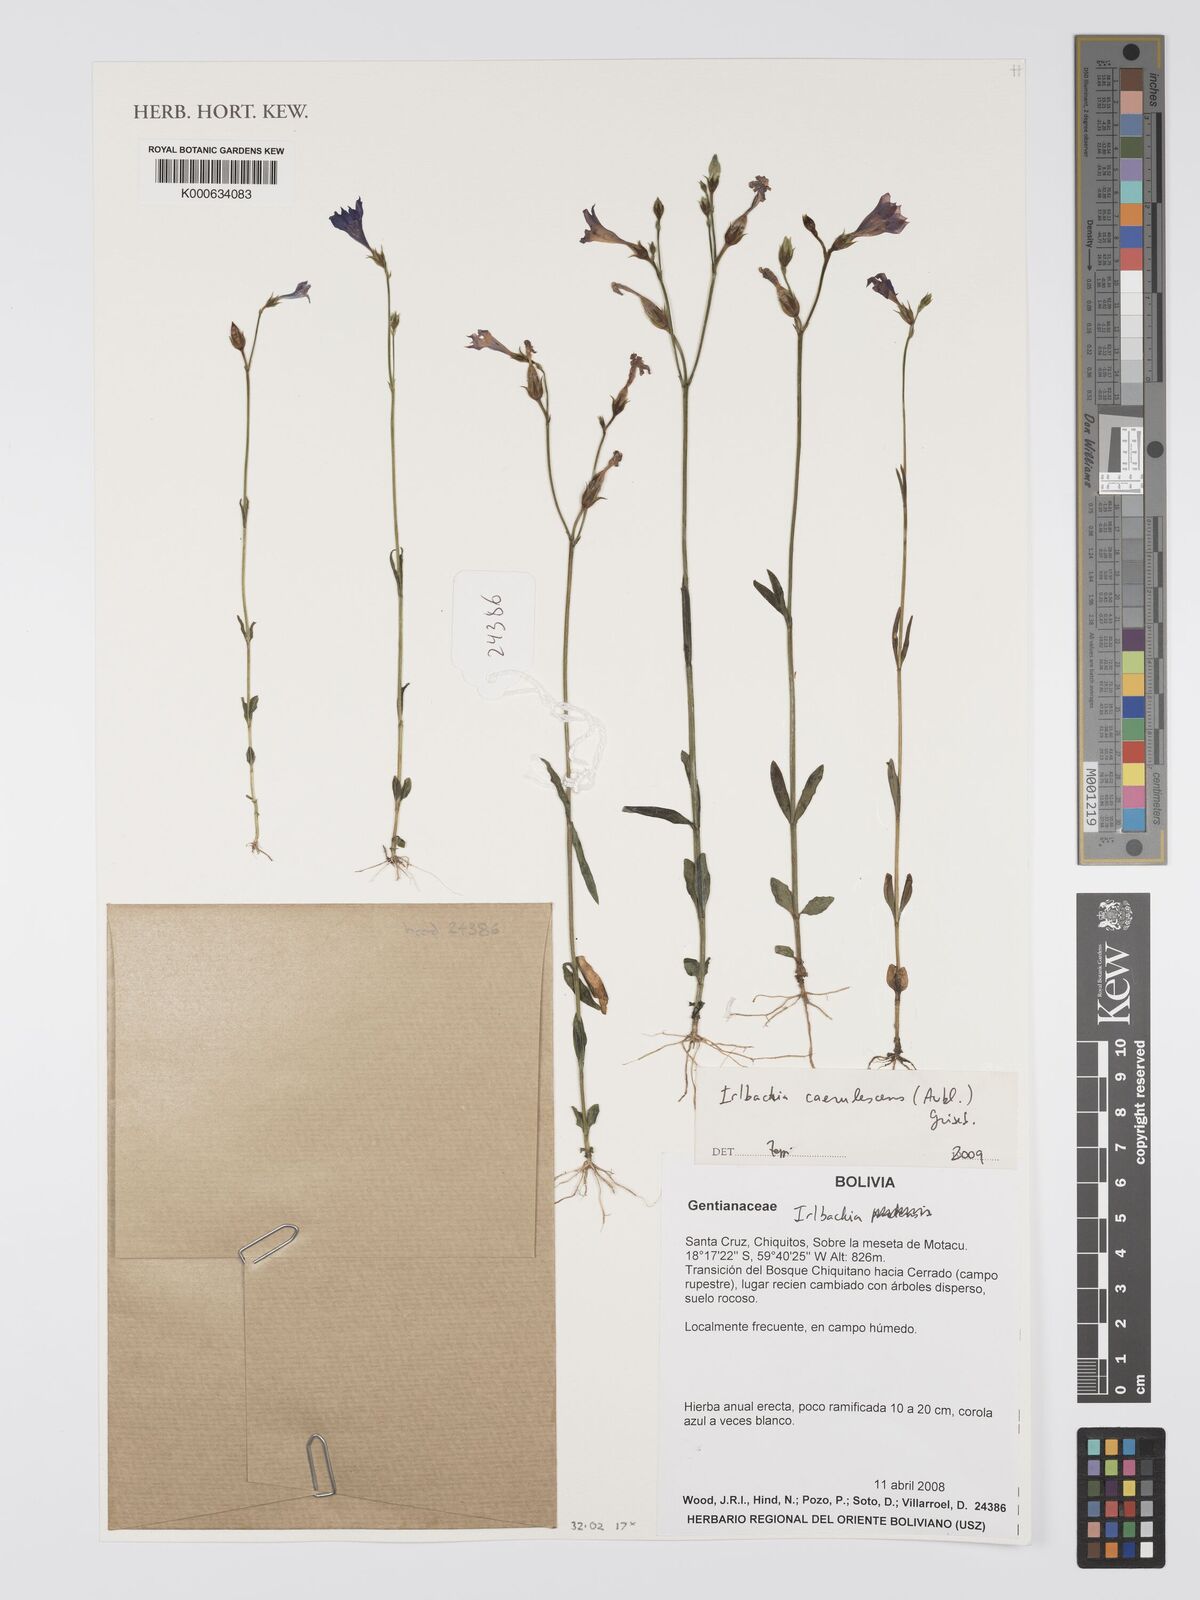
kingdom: Plantae
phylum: Tracheophyta
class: Magnoliopsida
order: Gentianales
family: Gentianaceae
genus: Tetrapollinia
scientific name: Tetrapollinia caerulescens
